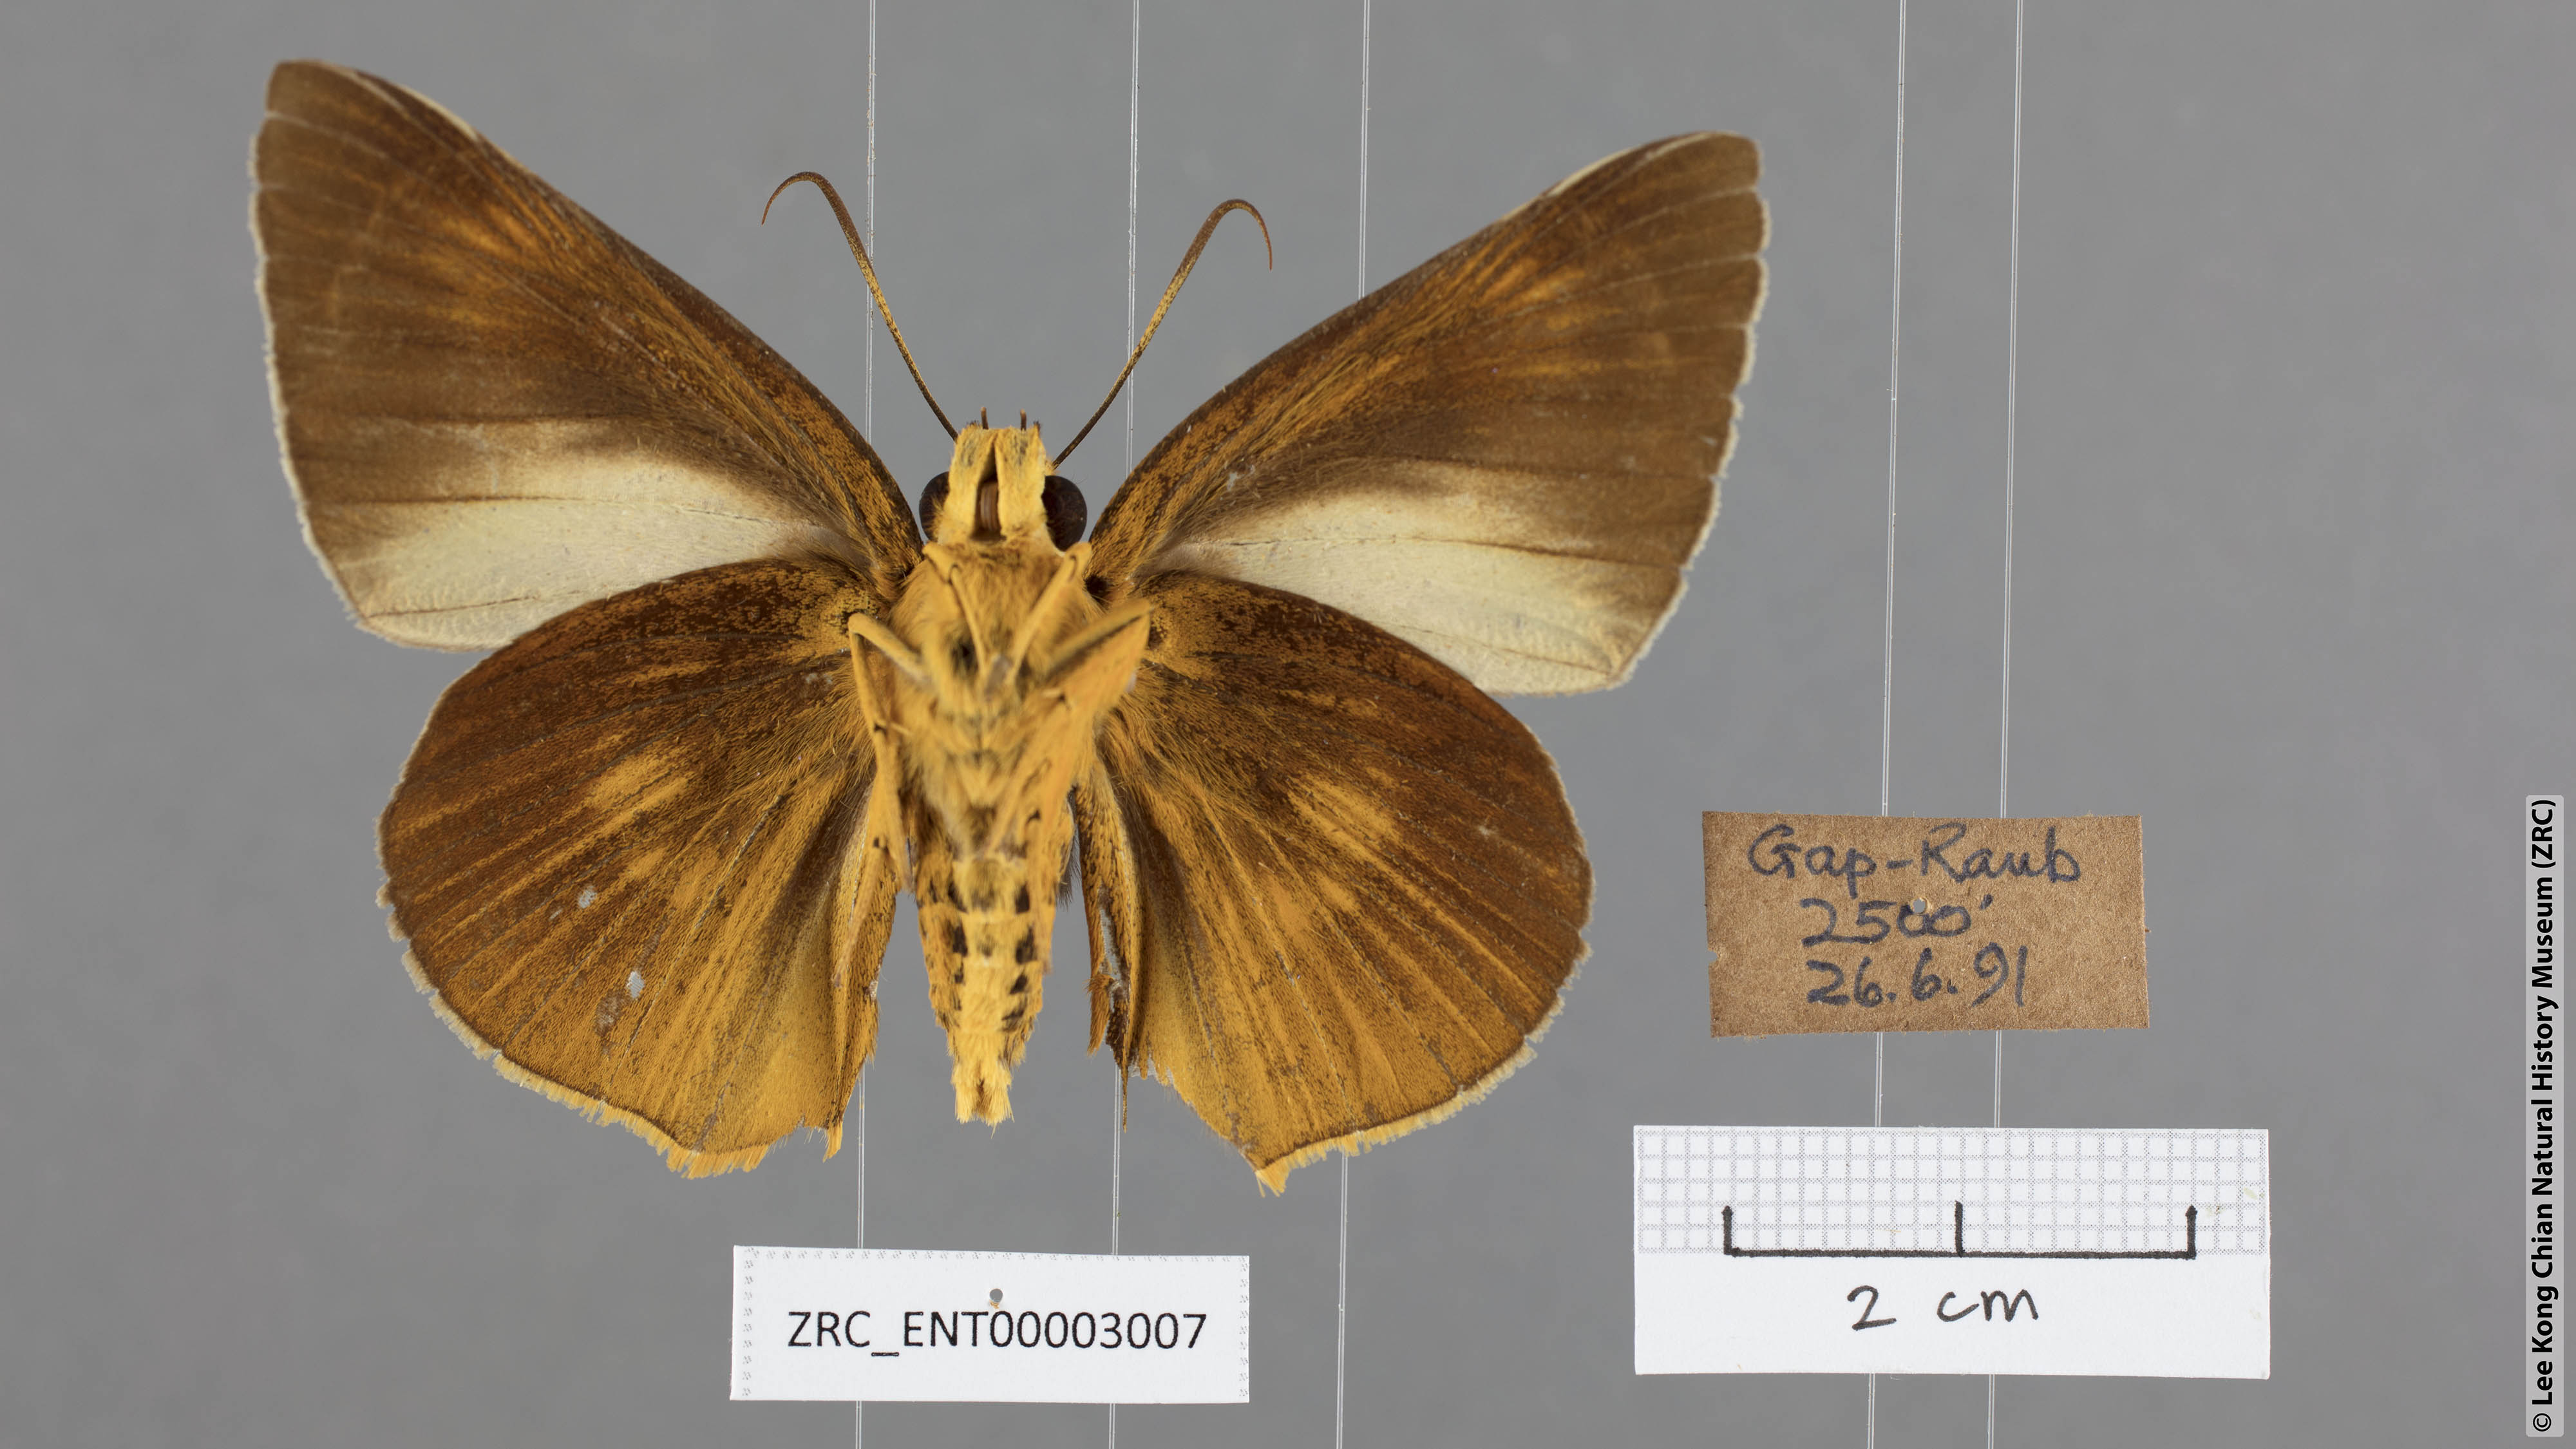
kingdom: Animalia
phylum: Arthropoda
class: Insecta
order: Lepidoptera
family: Hesperiidae
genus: Bibasis
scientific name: Bibasis etelka
